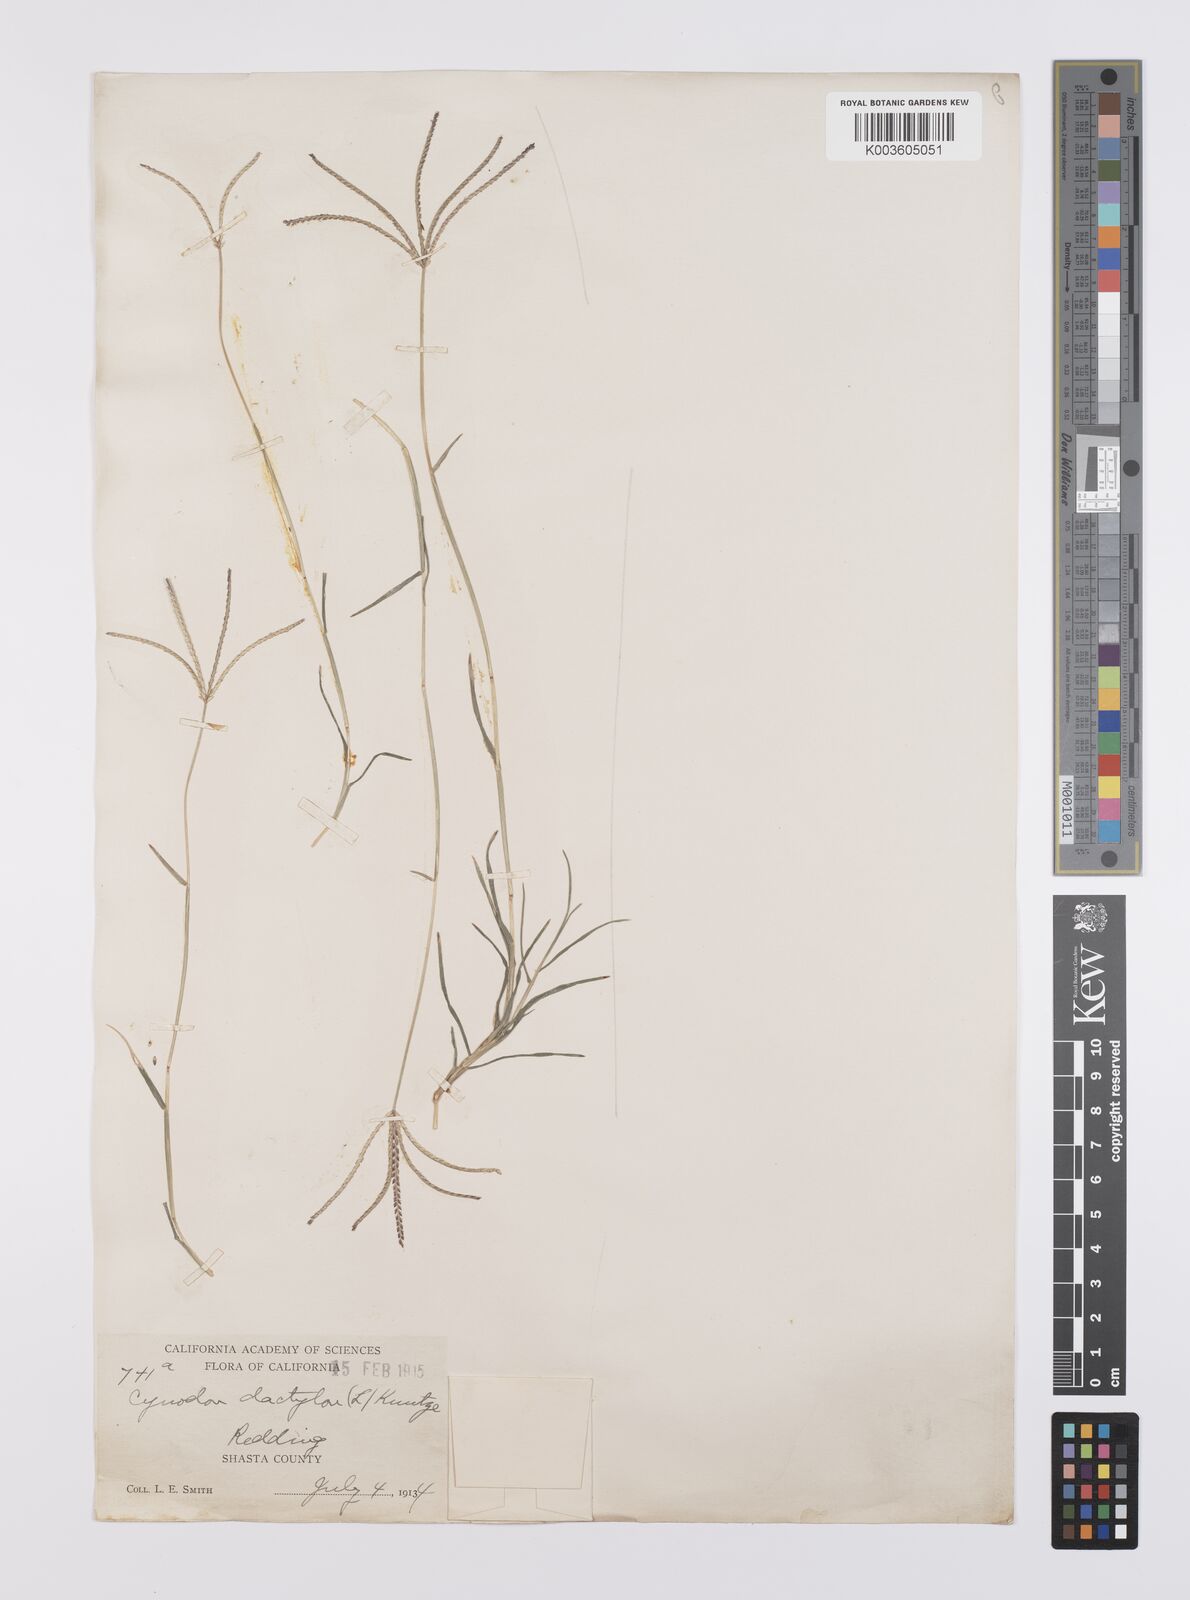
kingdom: Plantae
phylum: Tracheophyta
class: Liliopsida
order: Poales
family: Poaceae
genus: Cynodon
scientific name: Cynodon dactylon
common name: Bermuda grass
